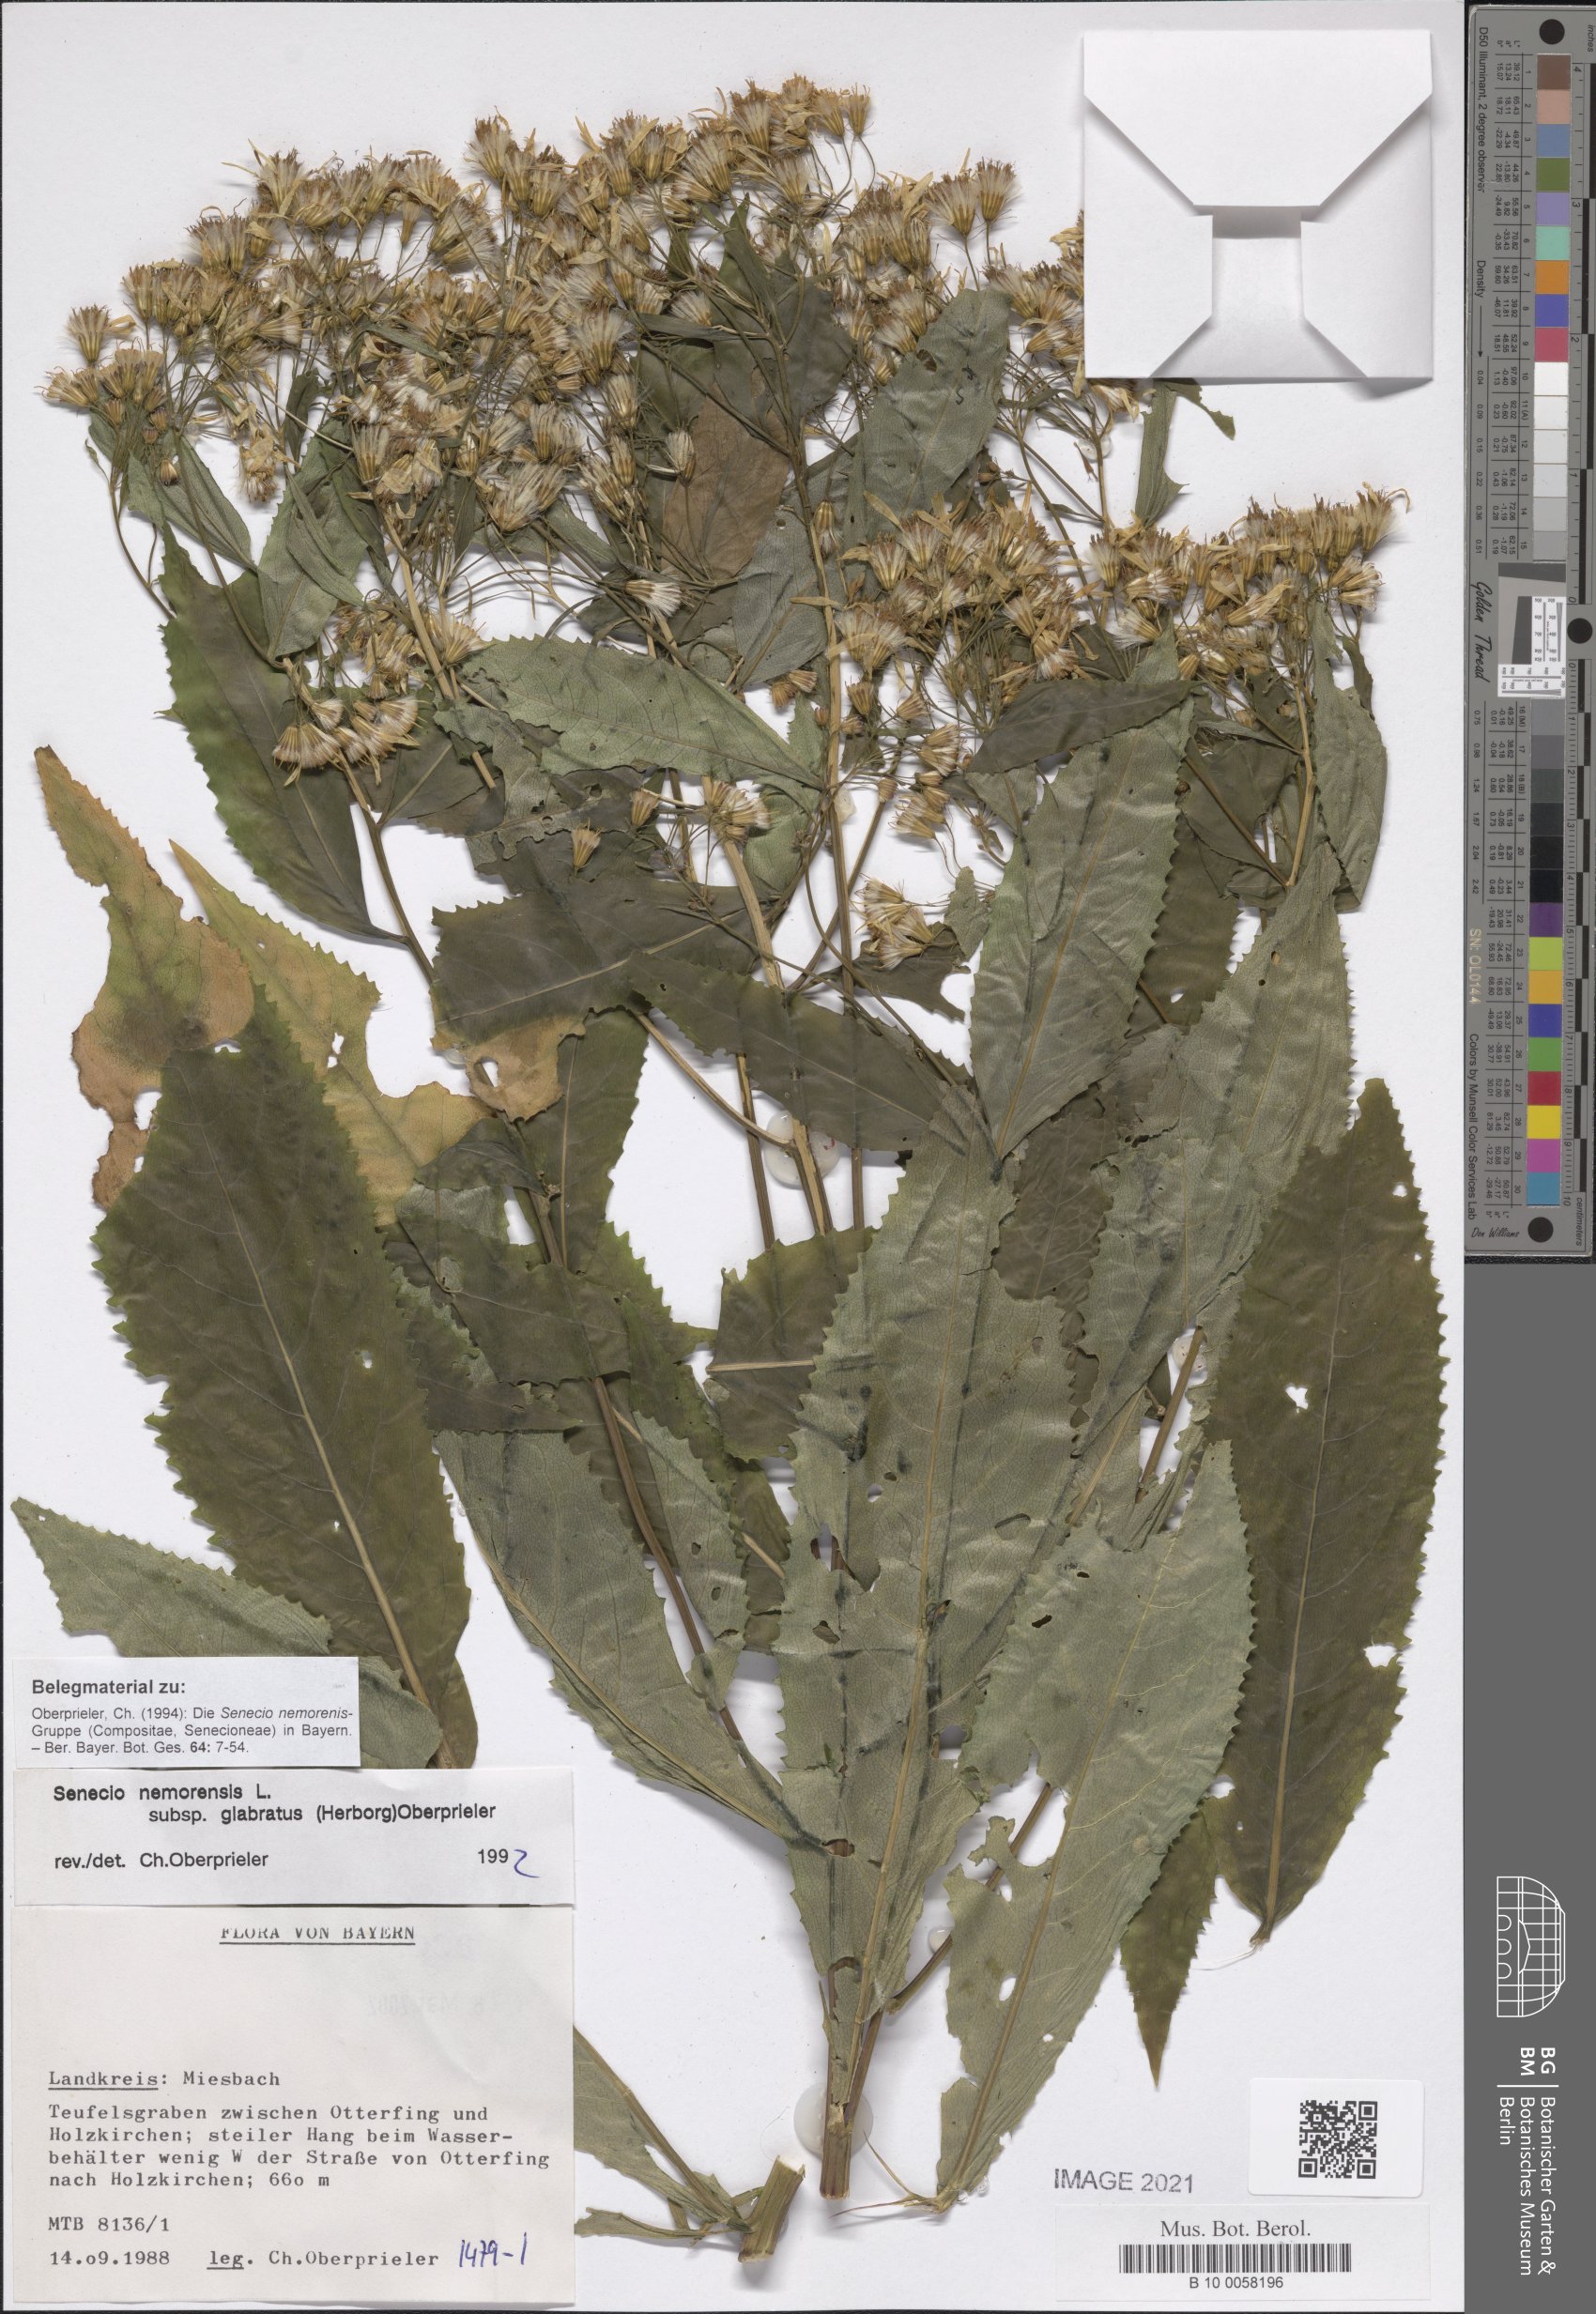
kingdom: Plantae
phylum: Tracheophyta
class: Magnoliopsida
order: Asterales
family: Asteraceae
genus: Senecio
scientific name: Senecio germanicus
